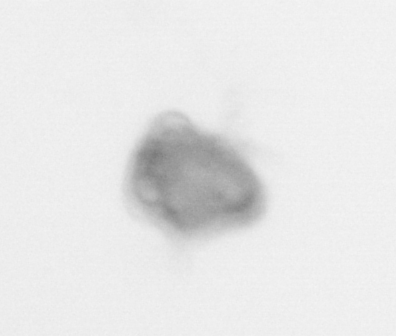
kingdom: Animalia
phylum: Arthropoda
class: Malacostraca
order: Decapoda
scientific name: Decapoda
